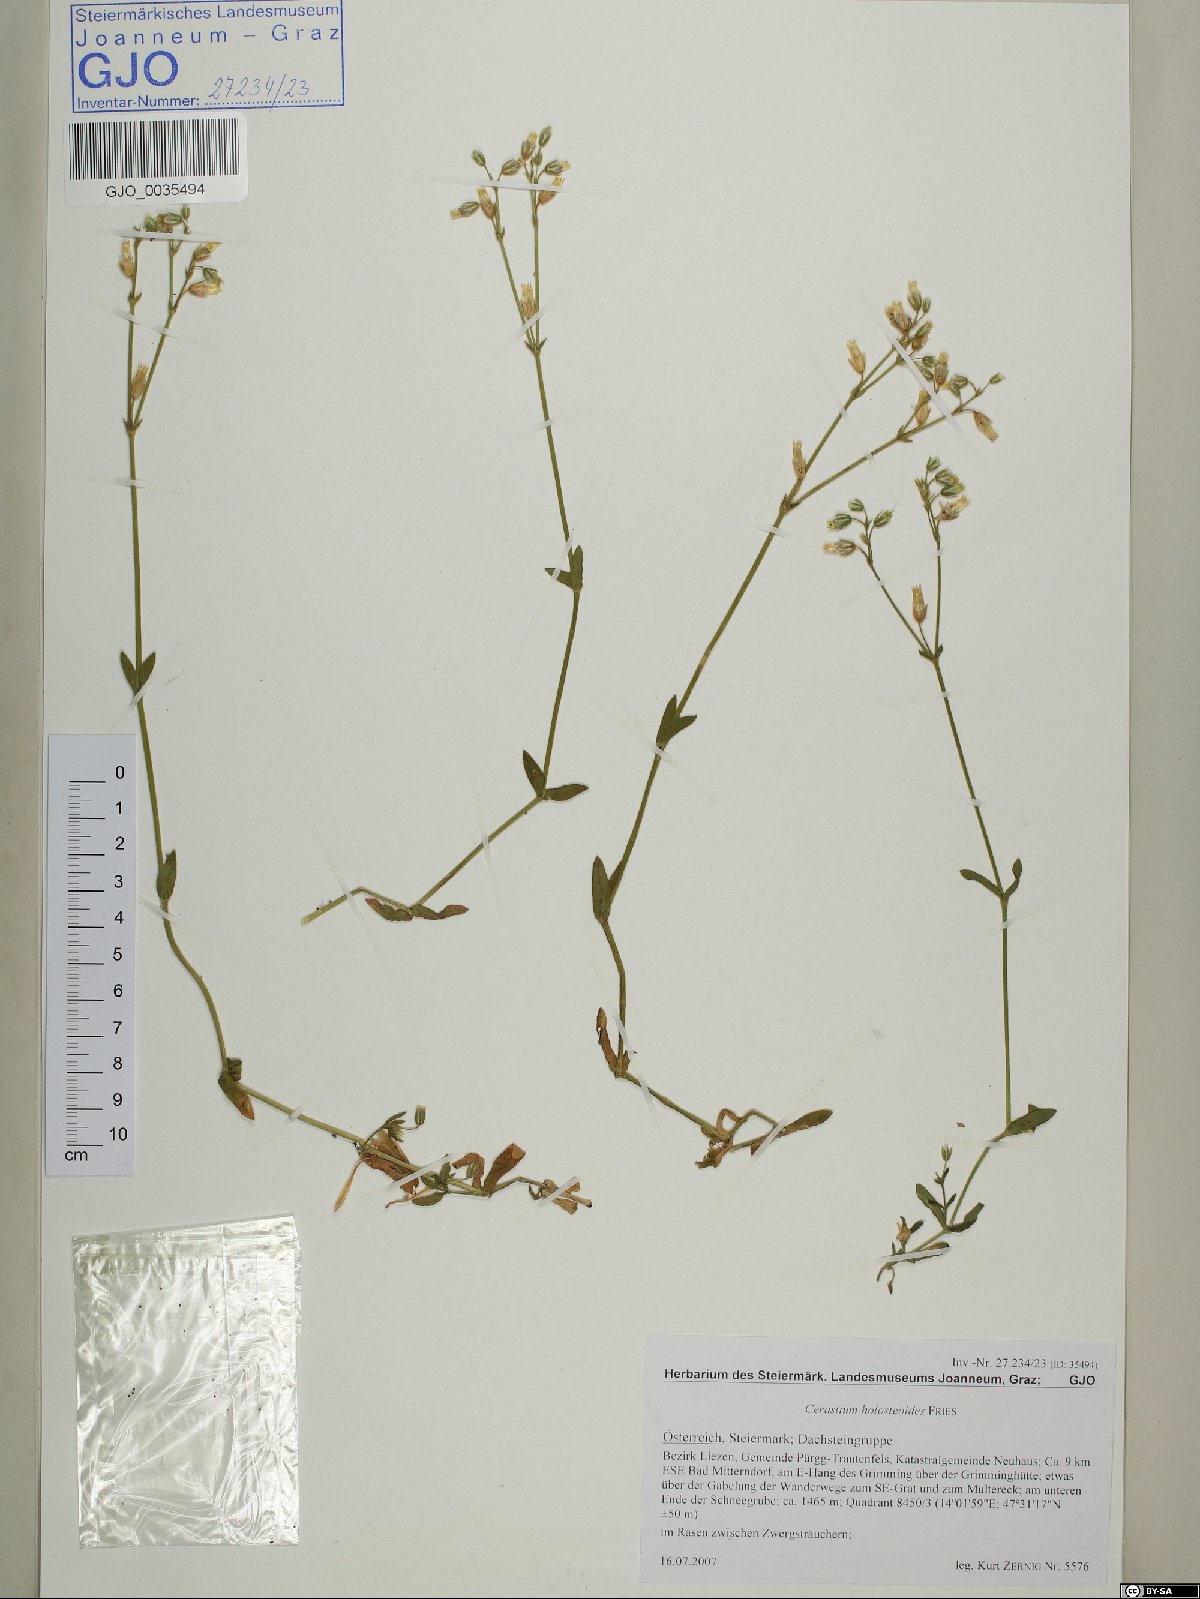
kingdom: Plantae
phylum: Tracheophyta
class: Magnoliopsida
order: Caryophyllales
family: Caryophyllaceae
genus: Cerastium
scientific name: Cerastium holosteoides
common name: Big chickweed
